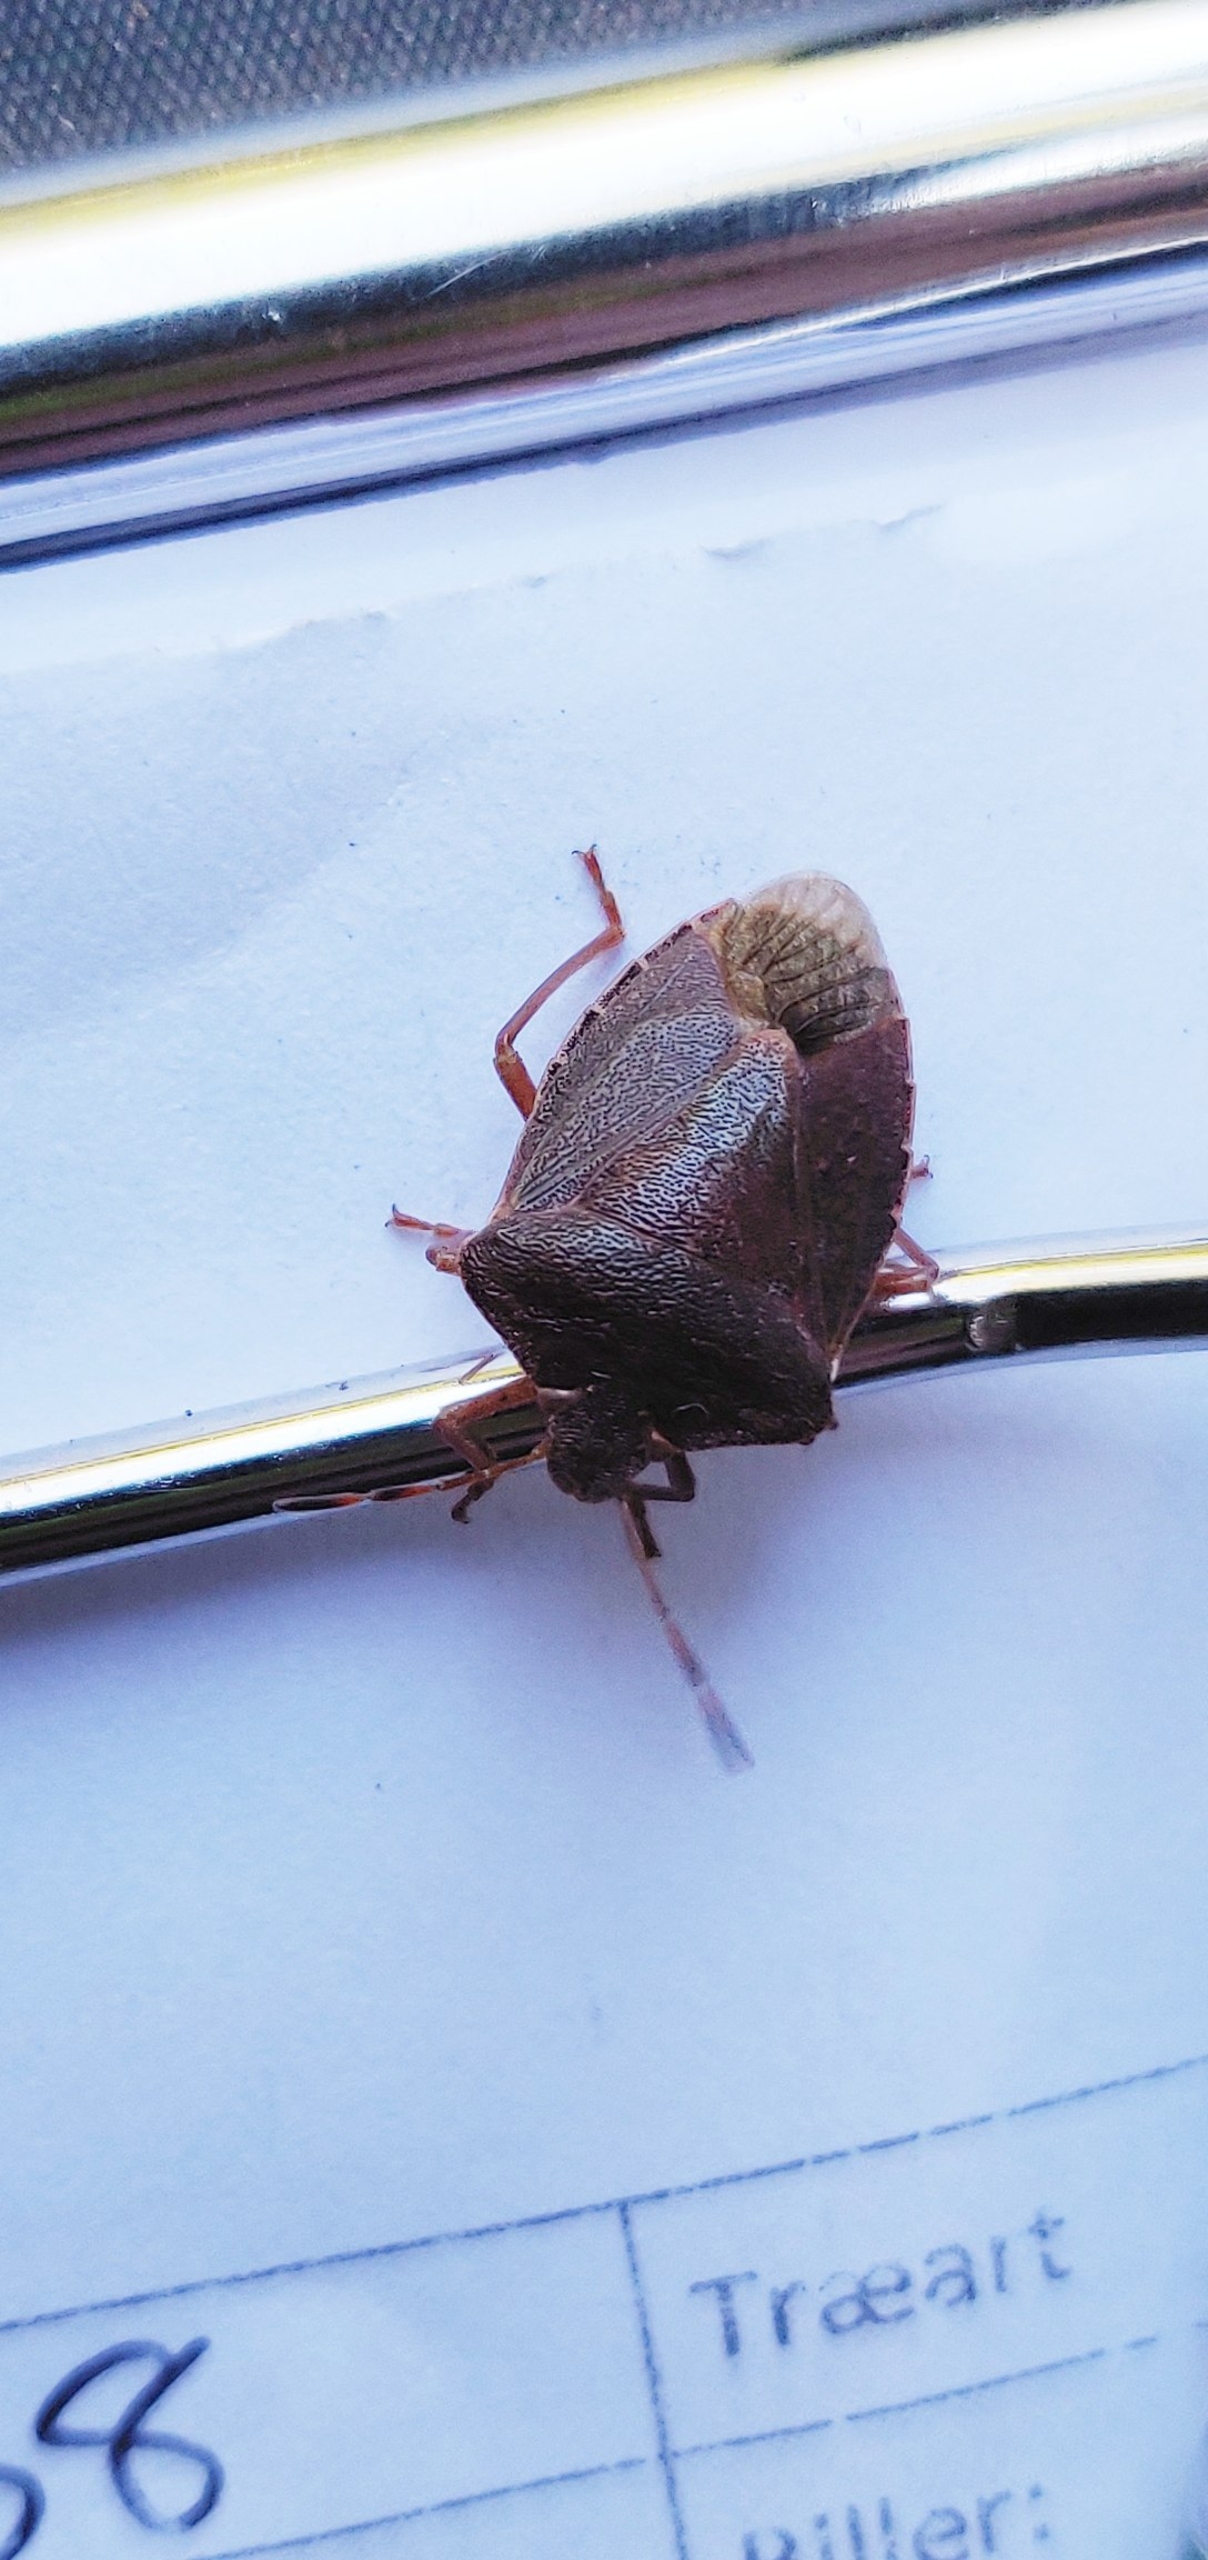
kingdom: Animalia
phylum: Arthropoda
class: Insecta
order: Hemiptera
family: Pentatomidae
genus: Palomena
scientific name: Palomena prasina
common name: Grøn bredtæge
